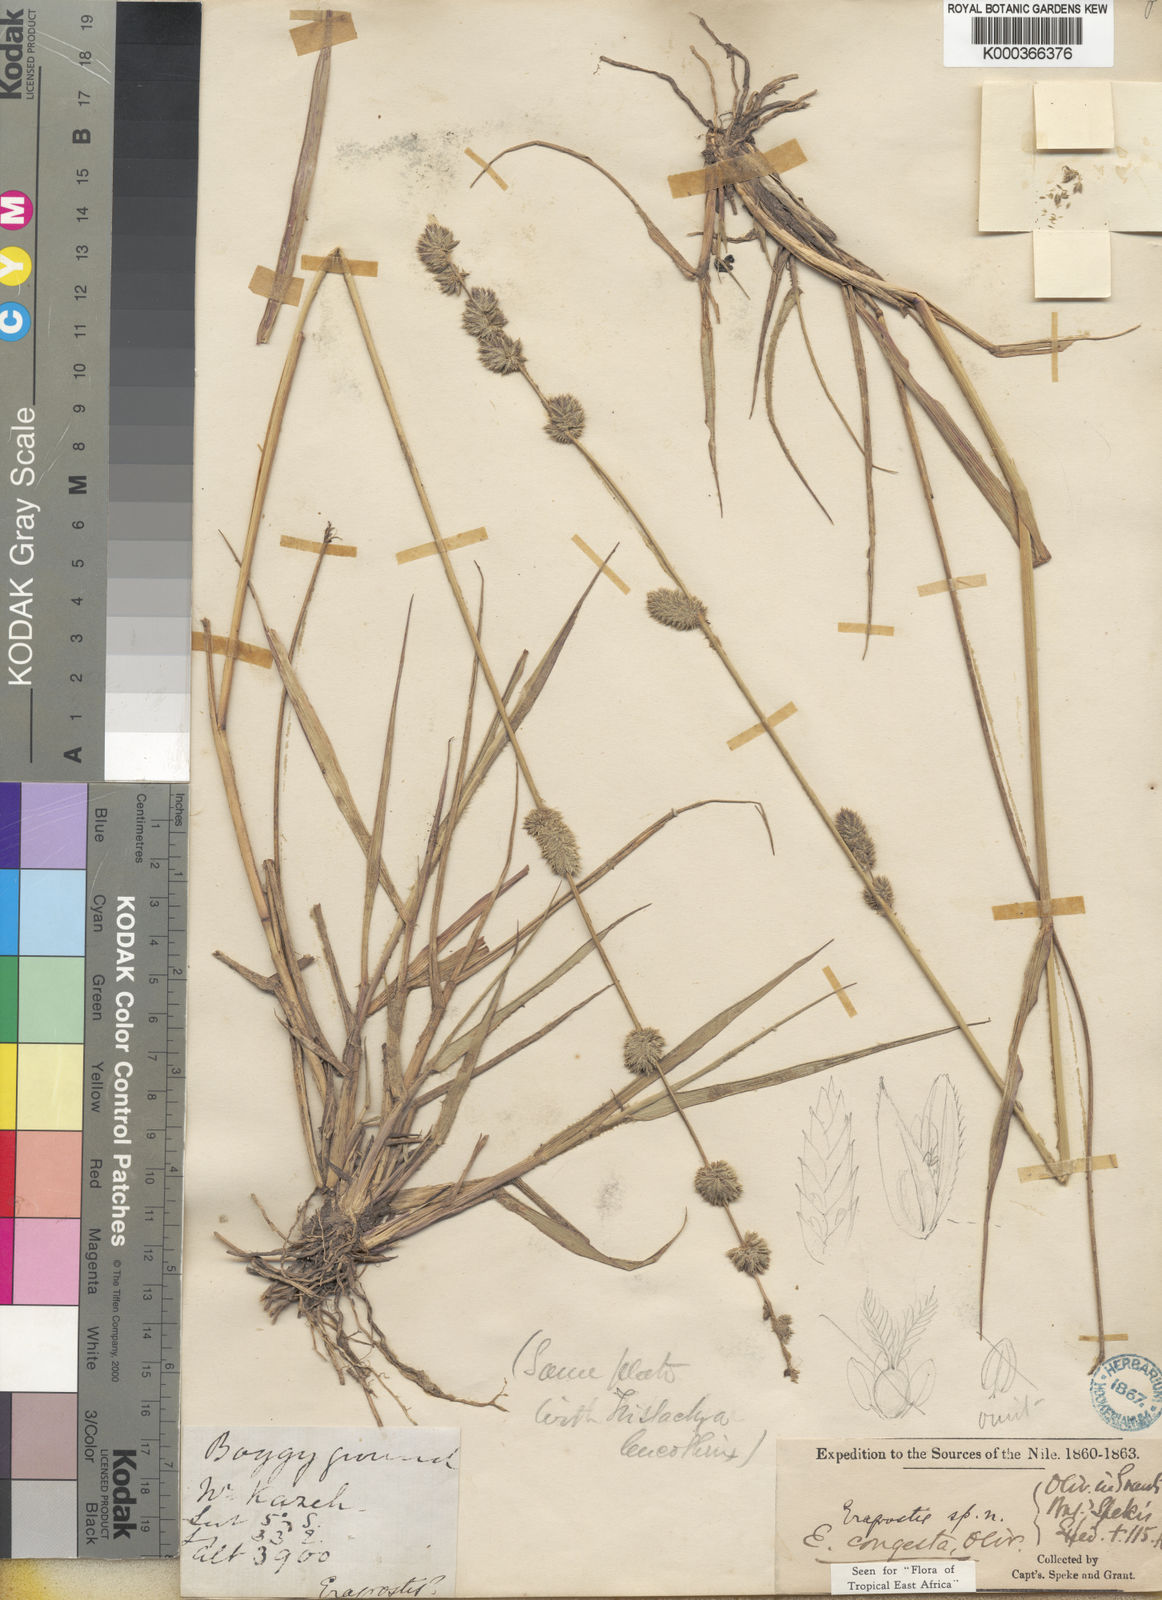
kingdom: Plantae
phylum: Tracheophyta
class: Liliopsida
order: Poales
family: Poaceae
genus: Eragrostis
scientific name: Eragrostis congesta
